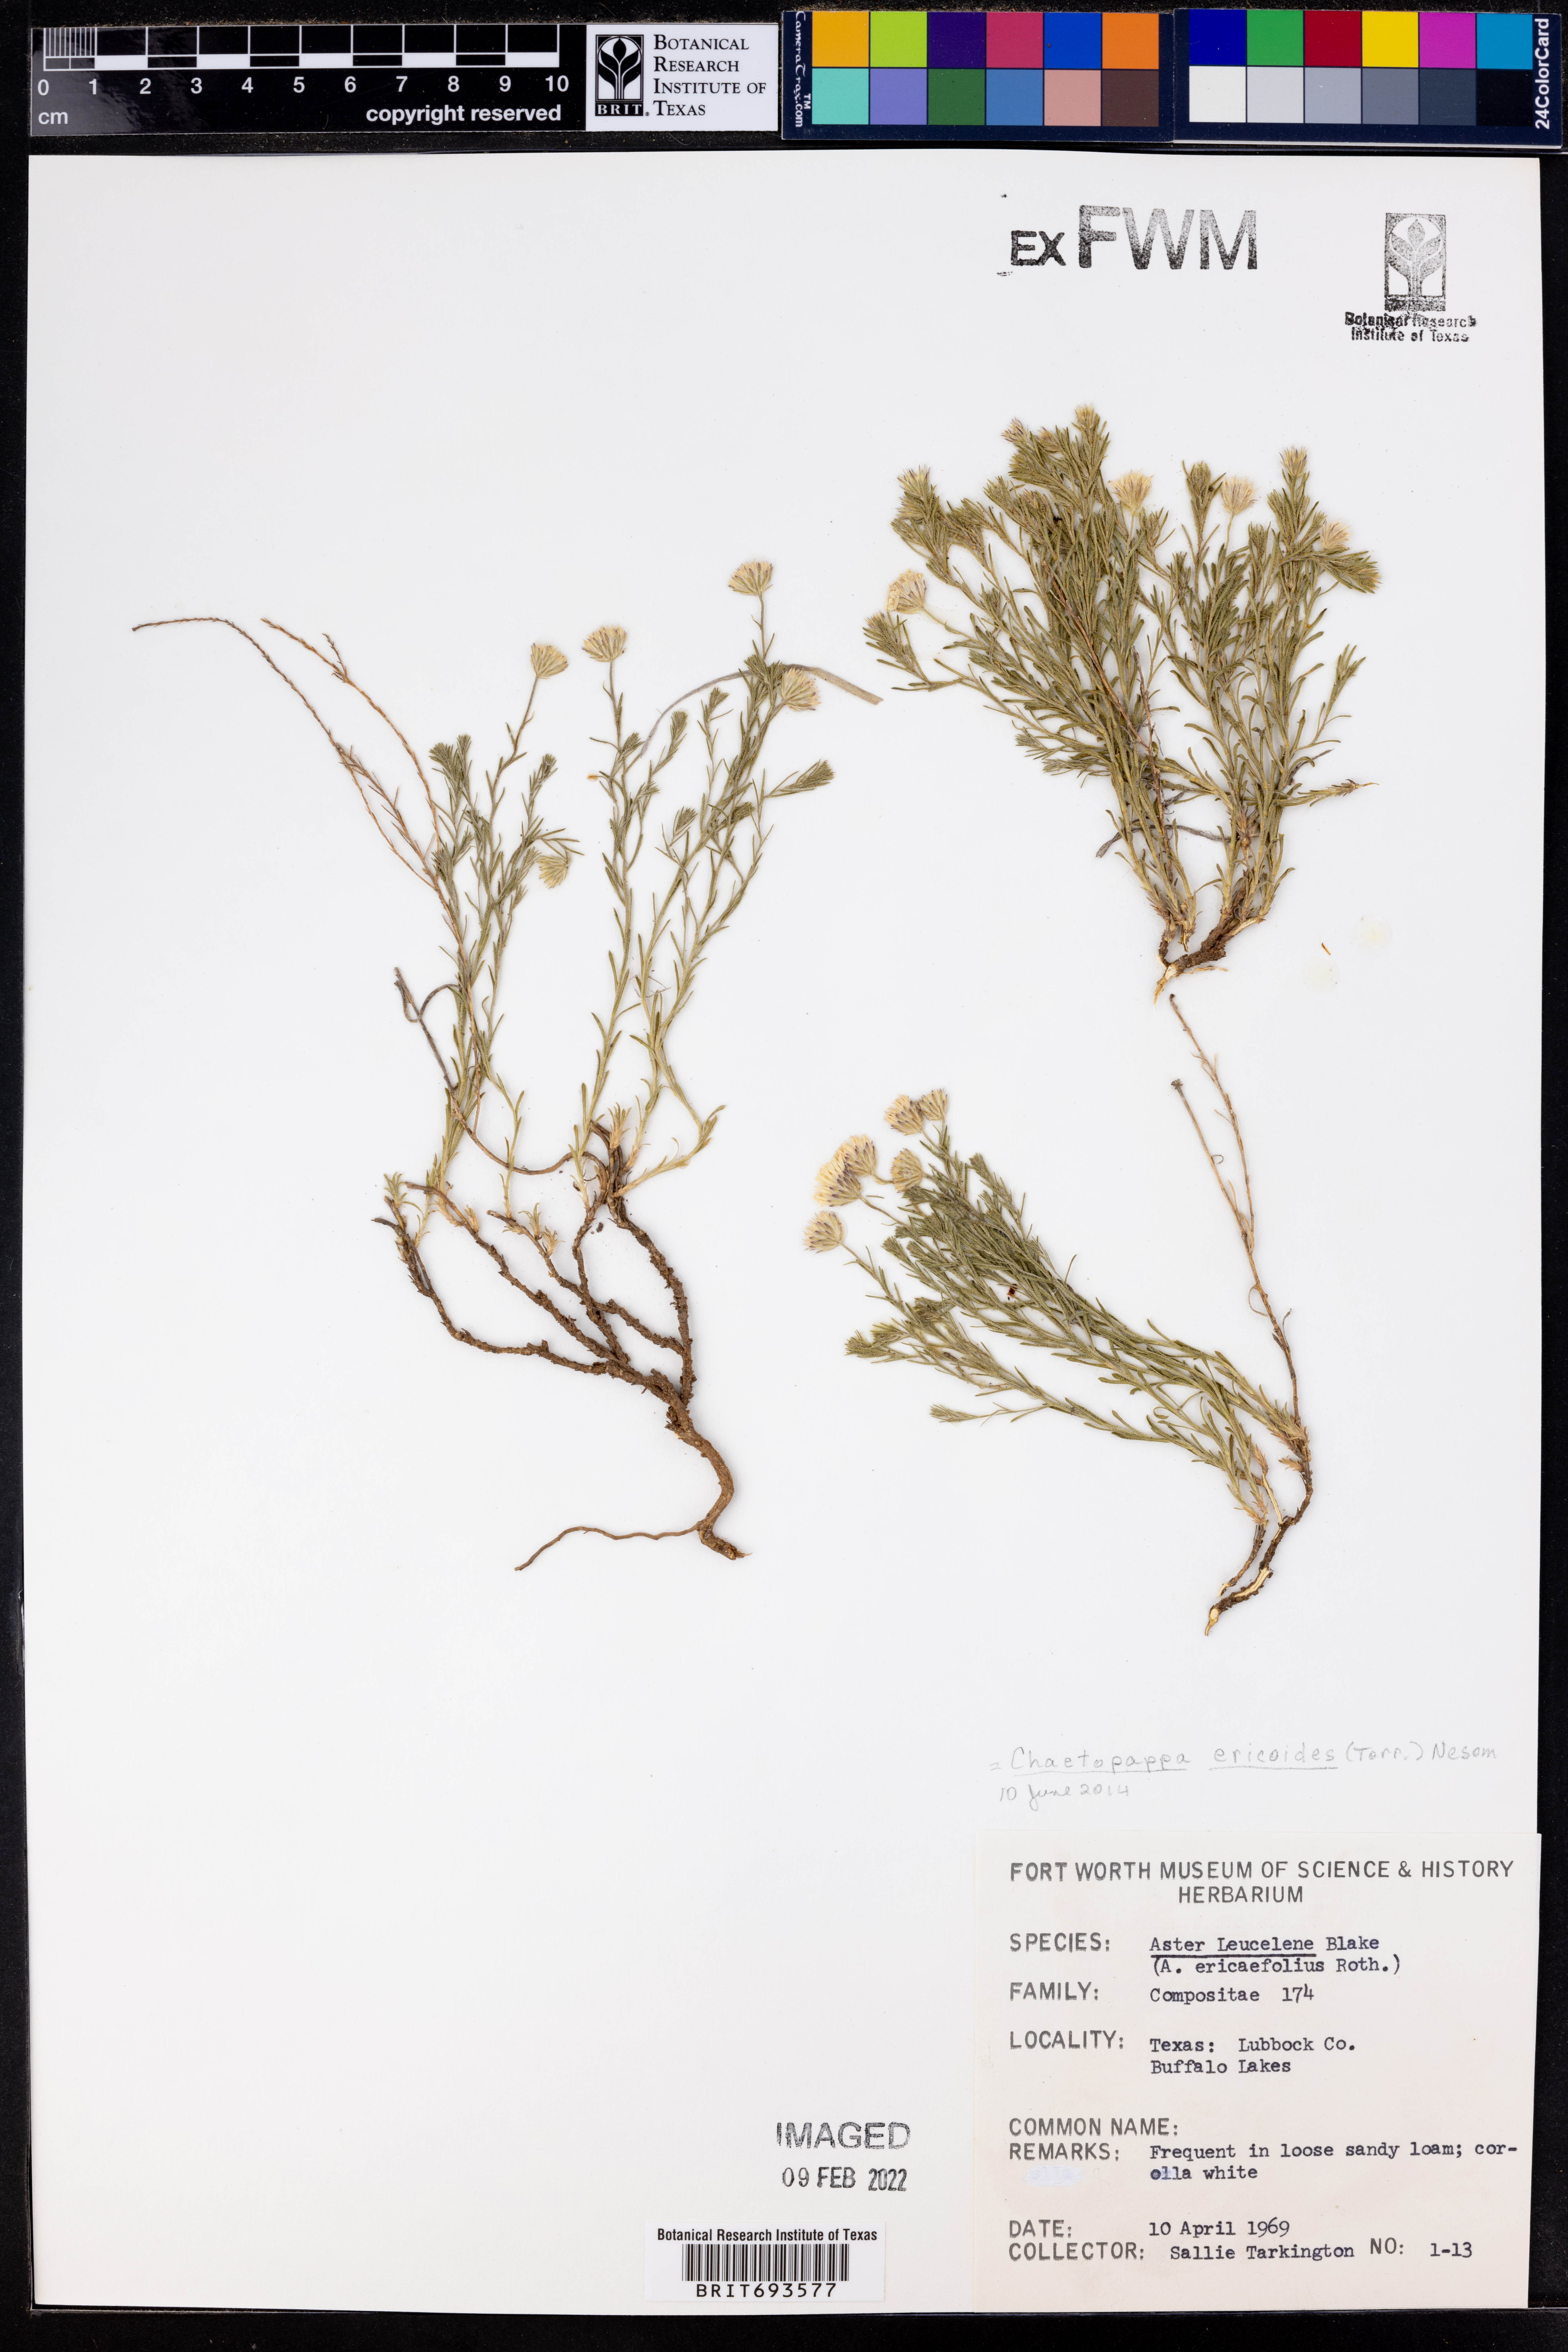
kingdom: Plantae
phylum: Tracheophyta
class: Magnoliopsida
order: Asterales
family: Asteraceae
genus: Chaetopappa
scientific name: Chaetopappa ericoides
